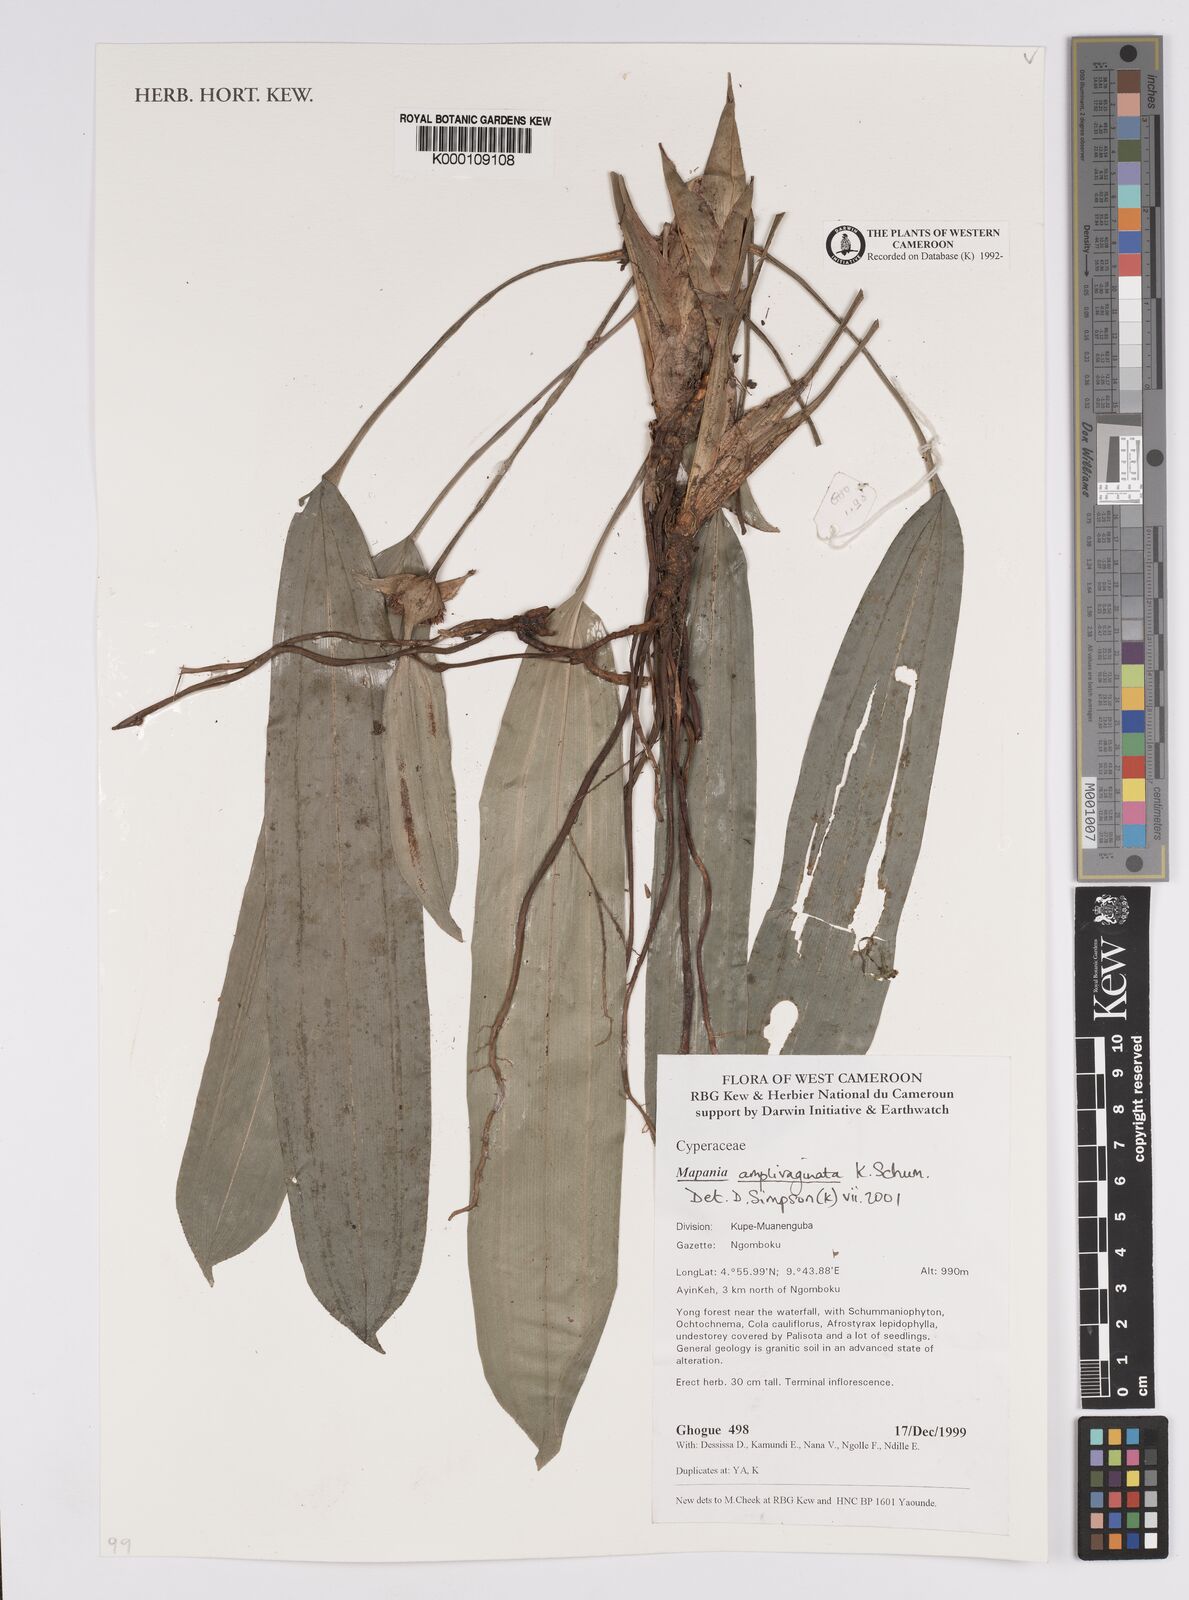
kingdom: Plantae
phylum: Tracheophyta
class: Liliopsida
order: Poales
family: Cyperaceae
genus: Mapania
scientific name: Mapania amplivaginata
